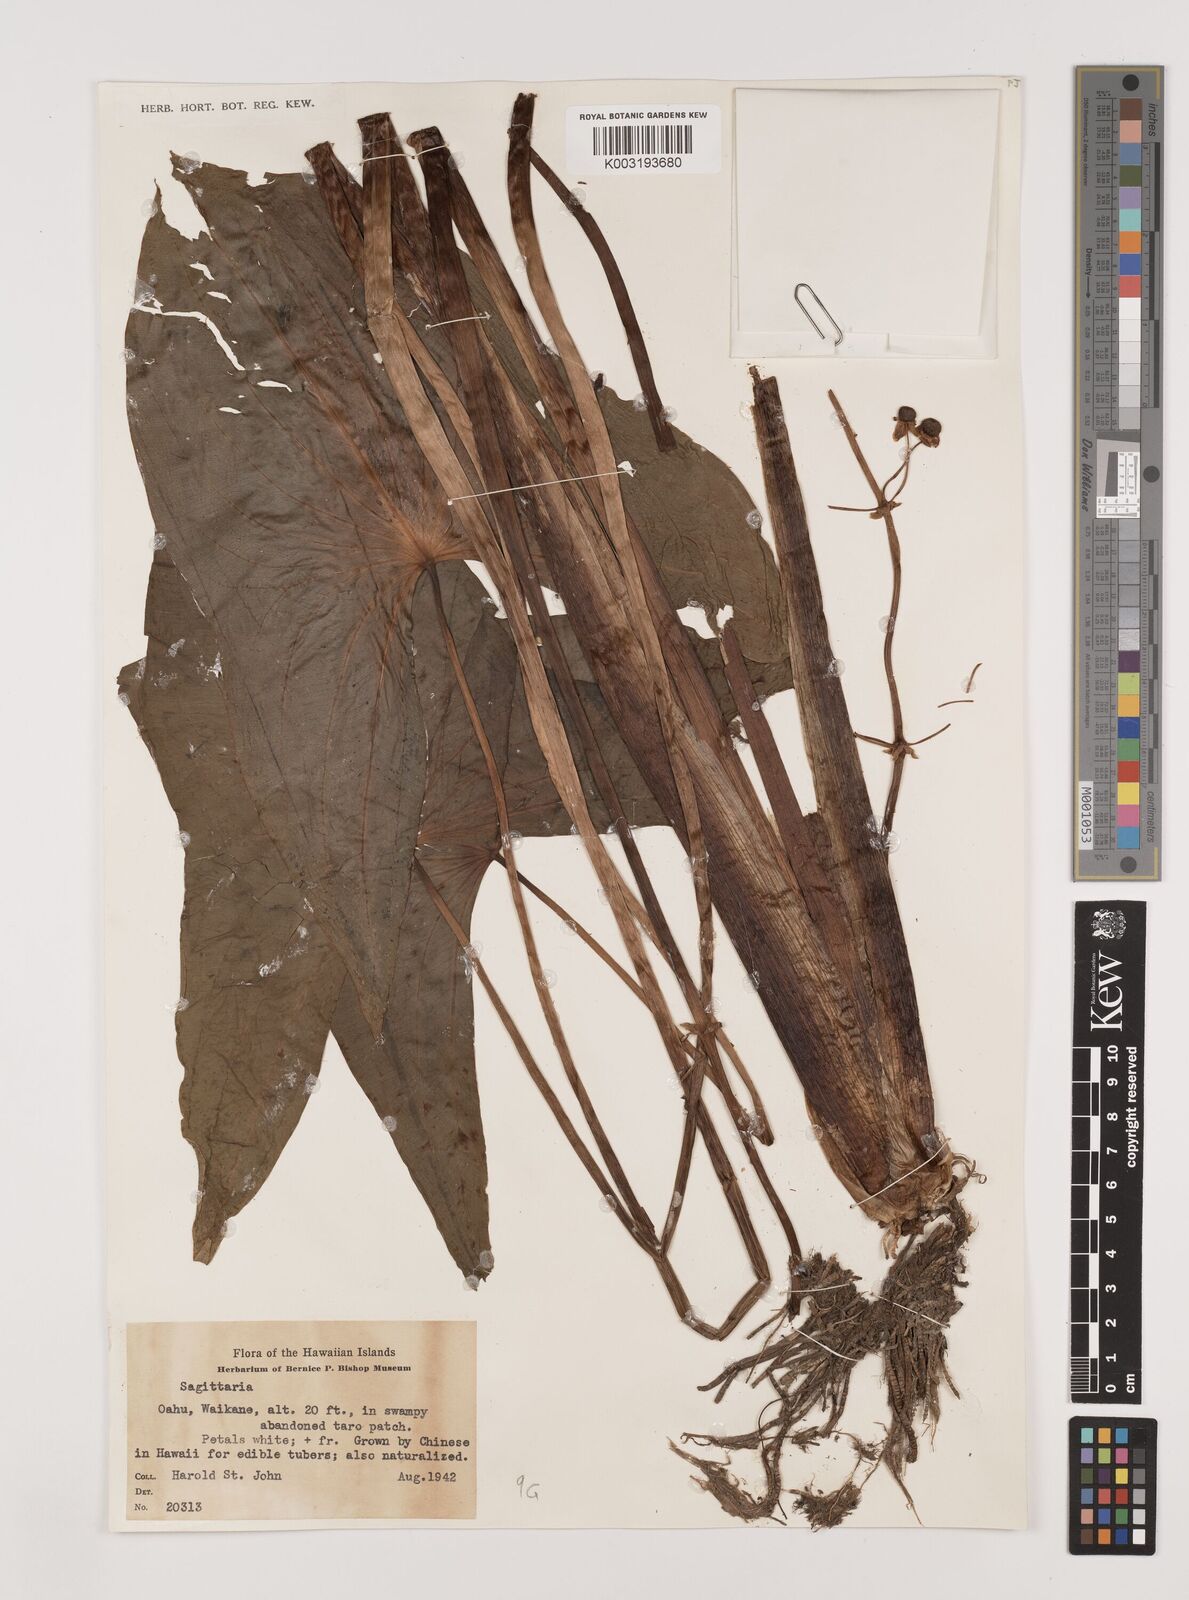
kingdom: Plantae
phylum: Tracheophyta
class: Liliopsida
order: Alismatales
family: Alismataceae
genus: Sagittaria
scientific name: Sagittaria
